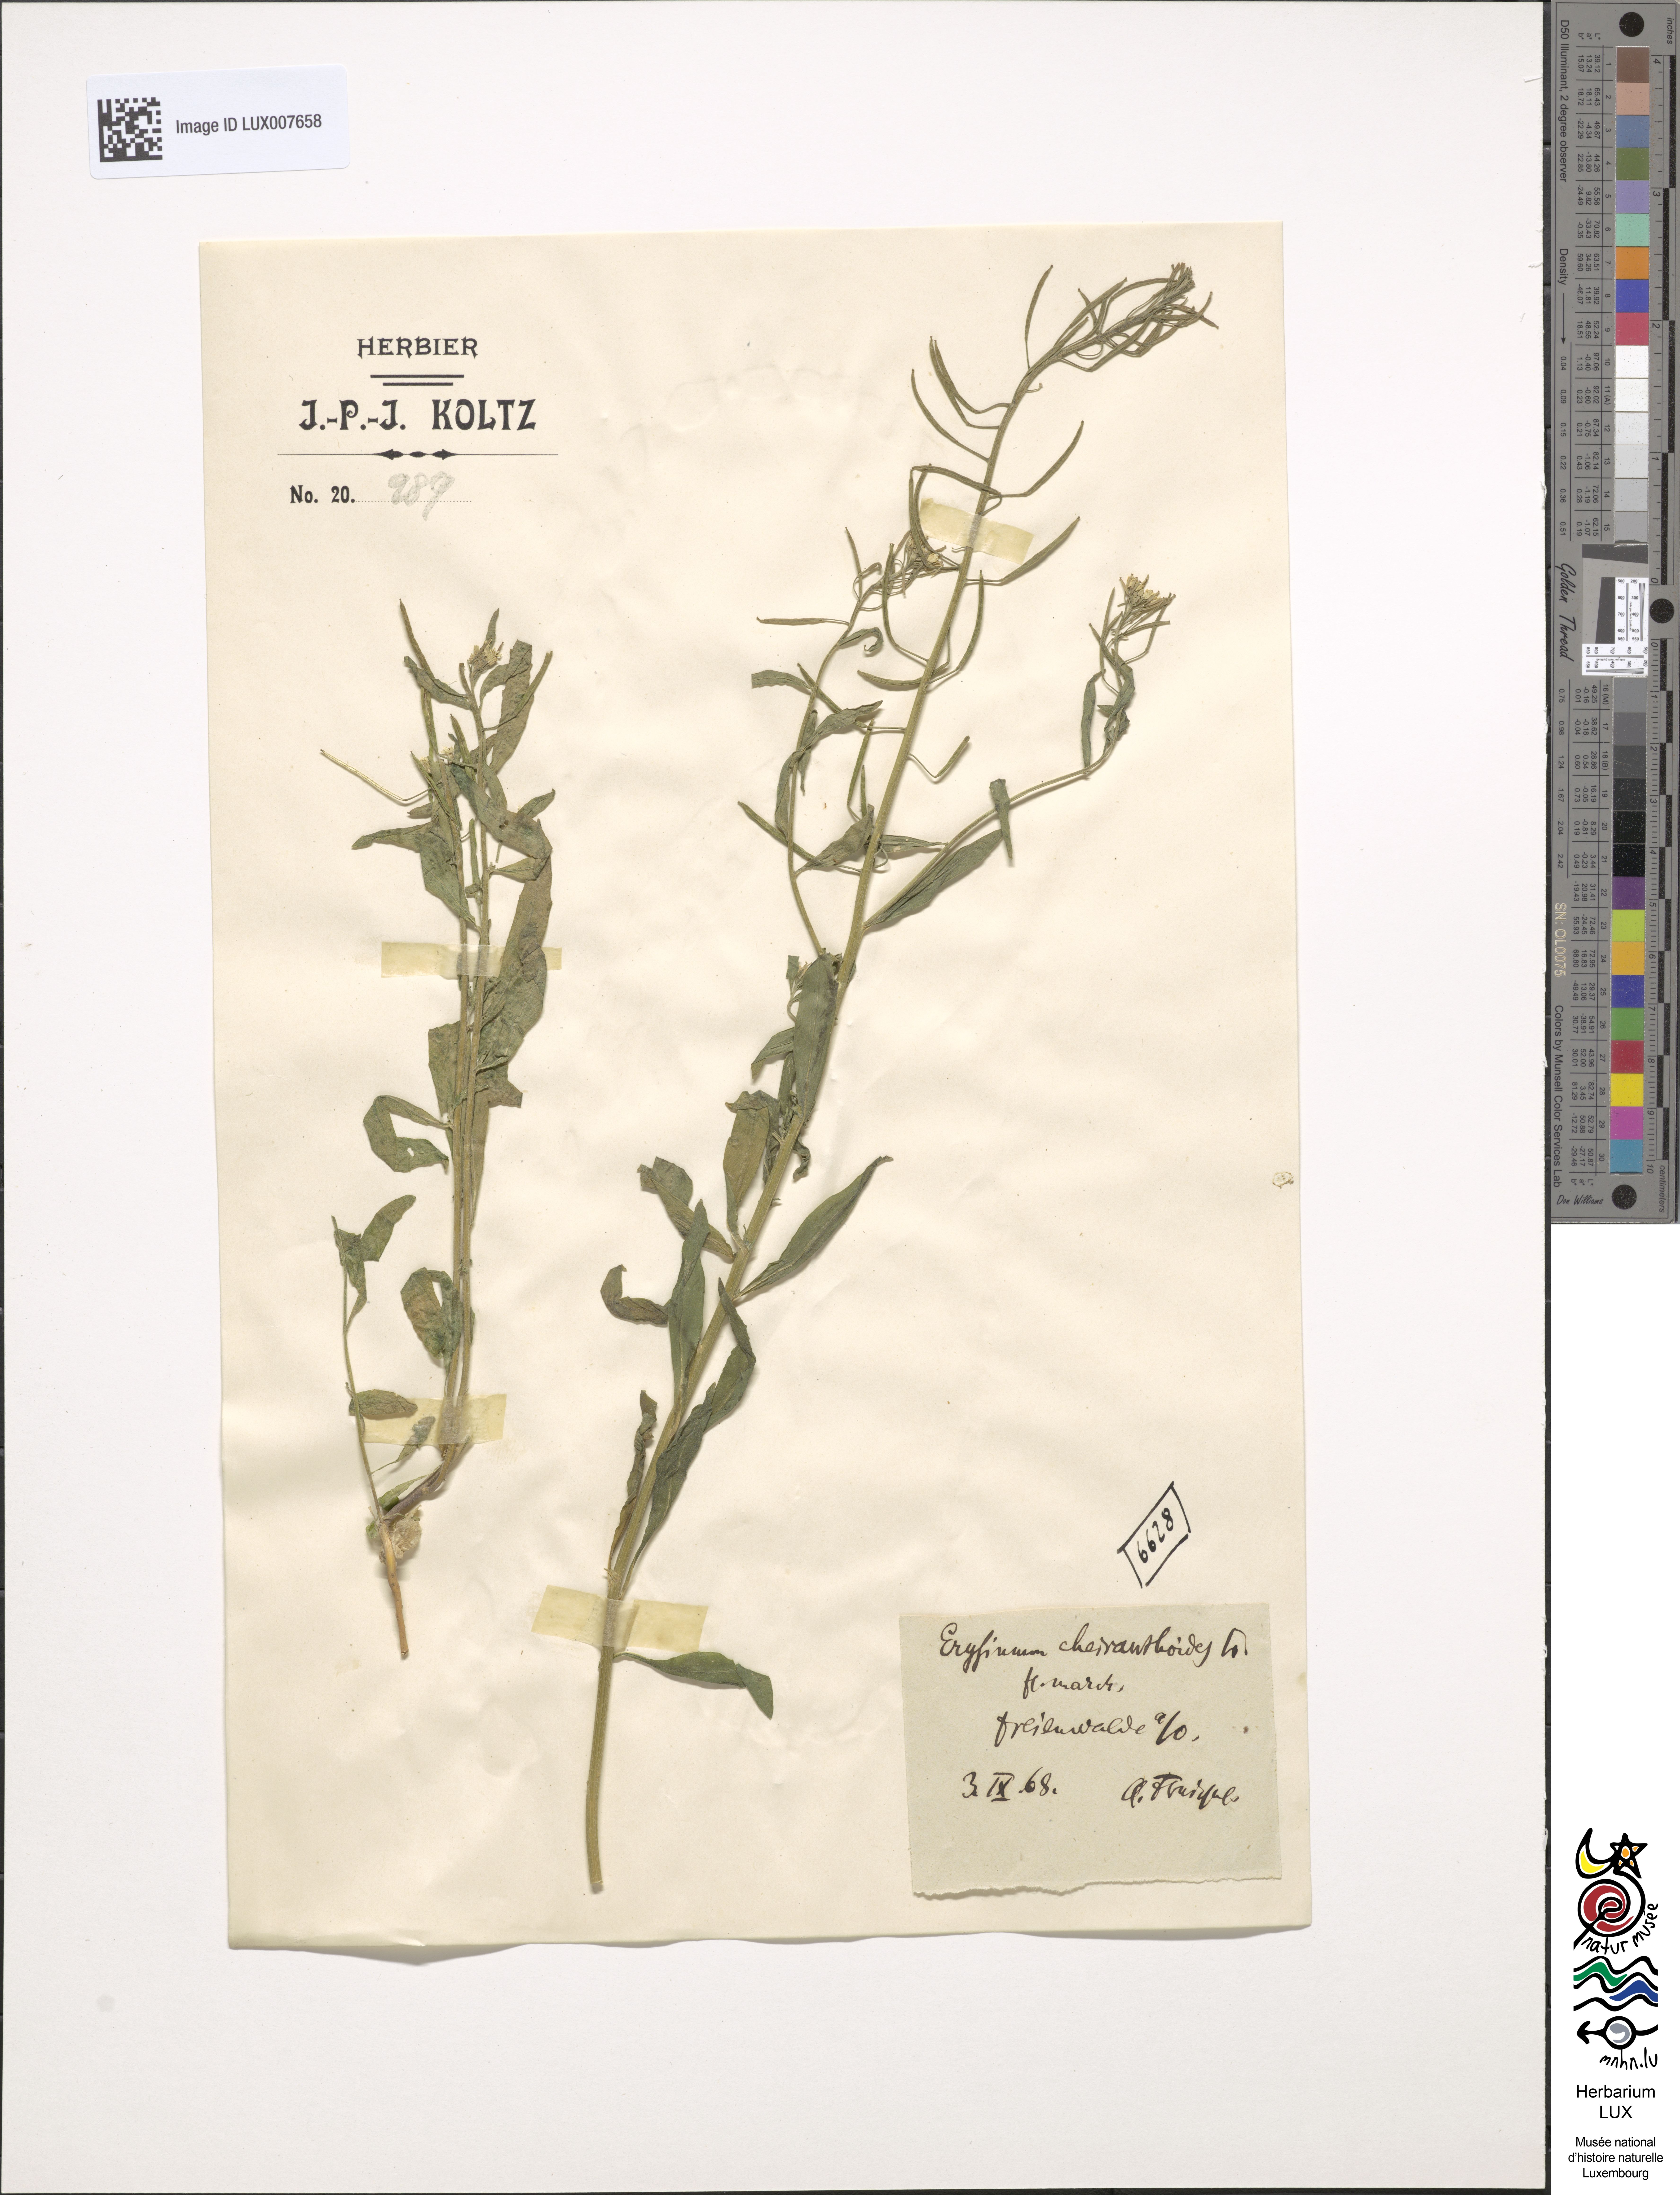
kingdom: Plantae
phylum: Tracheophyta
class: Magnoliopsida
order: Brassicales
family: Brassicaceae
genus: Erysimum
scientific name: Erysimum cheiranthoides
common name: Treacle mustard
